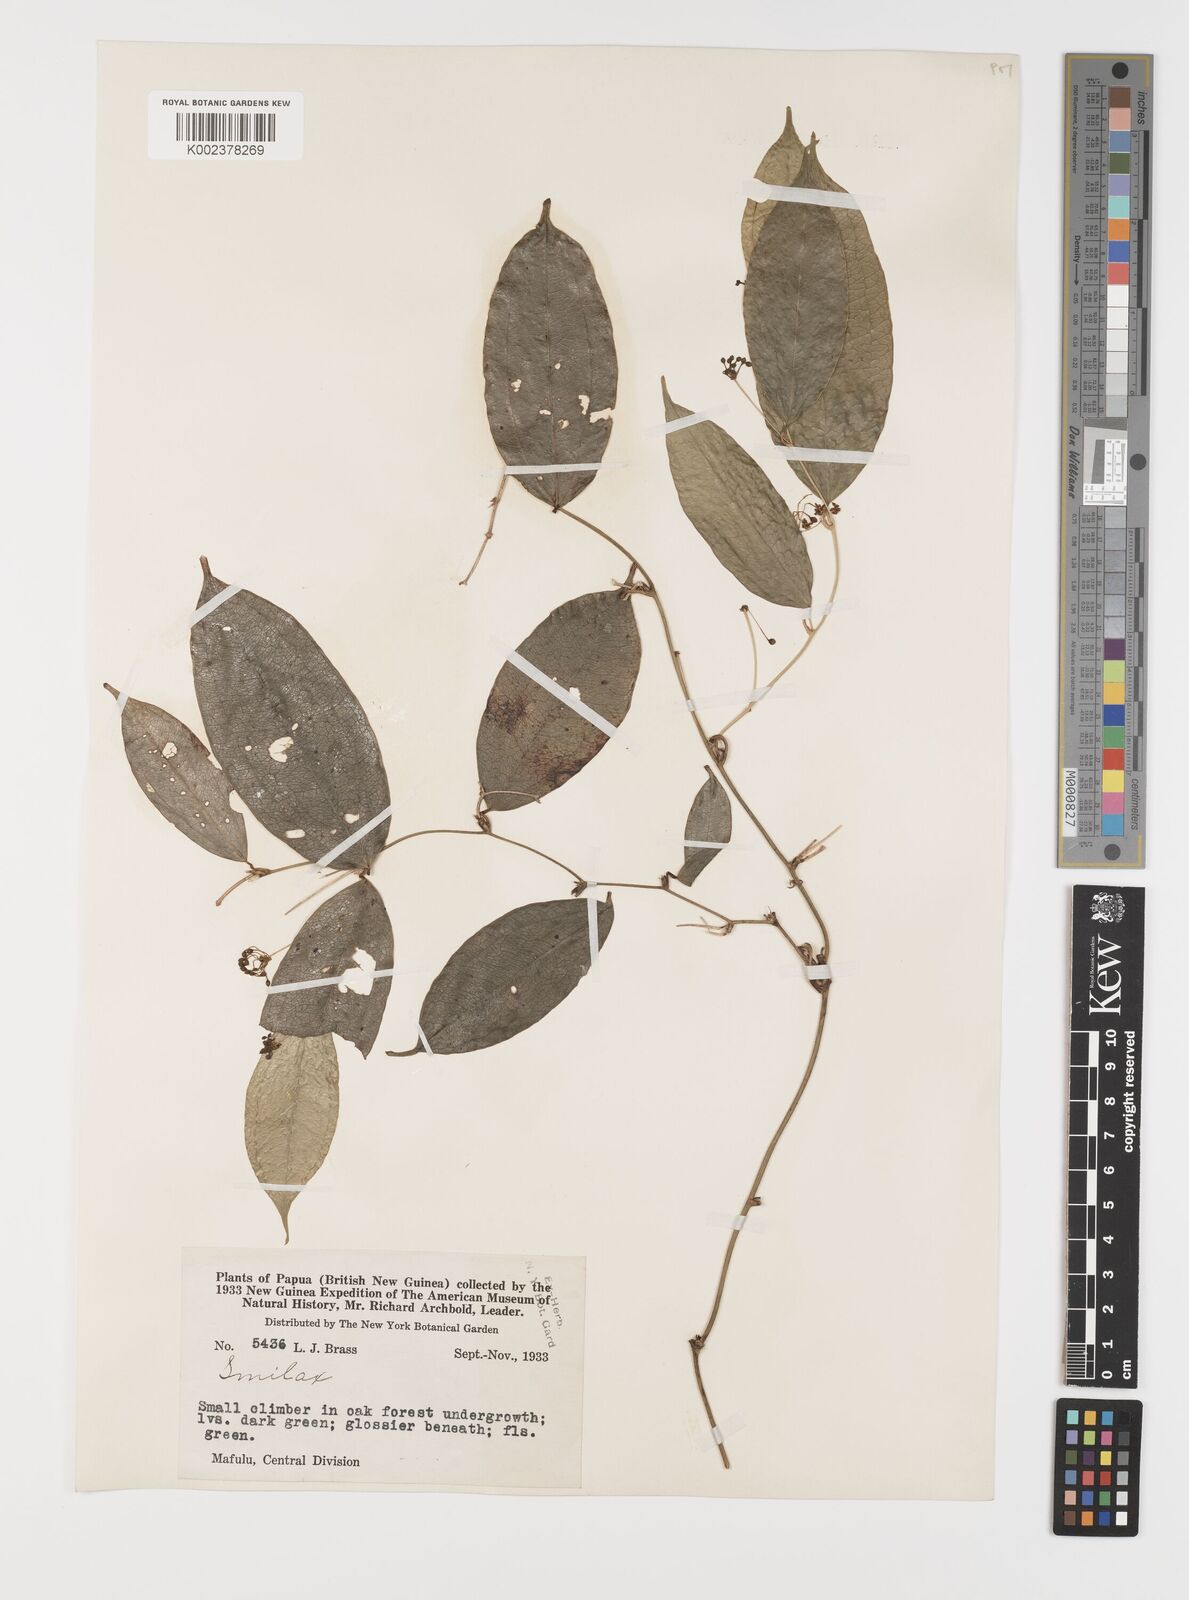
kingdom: Plantae
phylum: Tracheophyta
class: Liliopsida
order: Liliales
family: Smilacaceae
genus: Smilax
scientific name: Smilax
